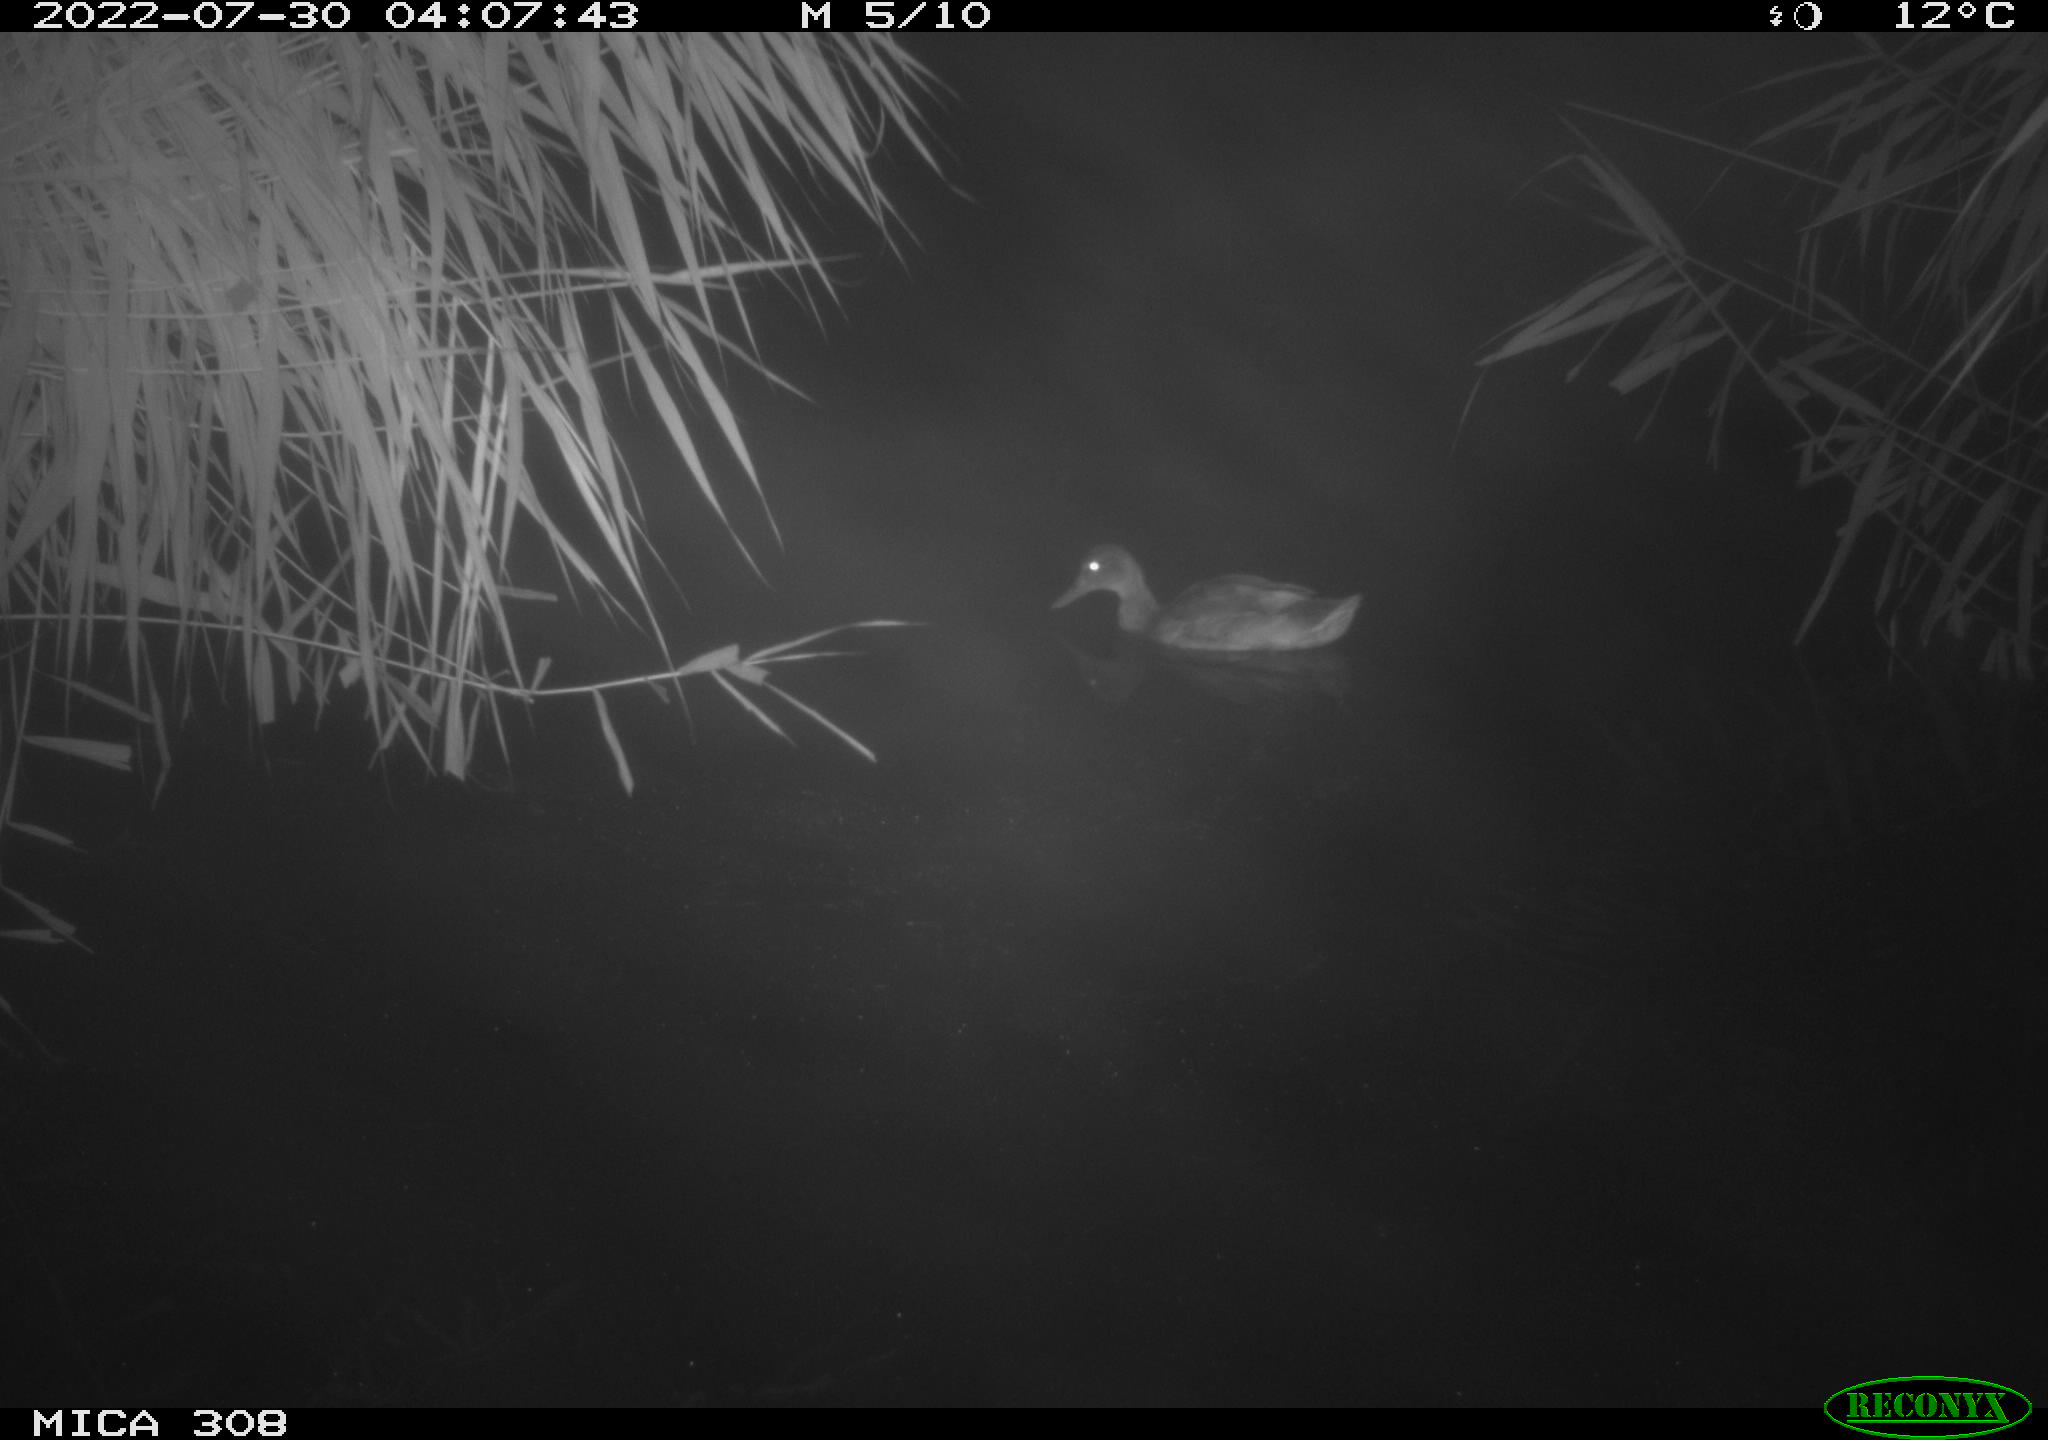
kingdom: Animalia
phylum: Chordata
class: Aves
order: Anseriformes
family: Anatidae
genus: Anas
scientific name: Anas platyrhynchos
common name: Mallard
